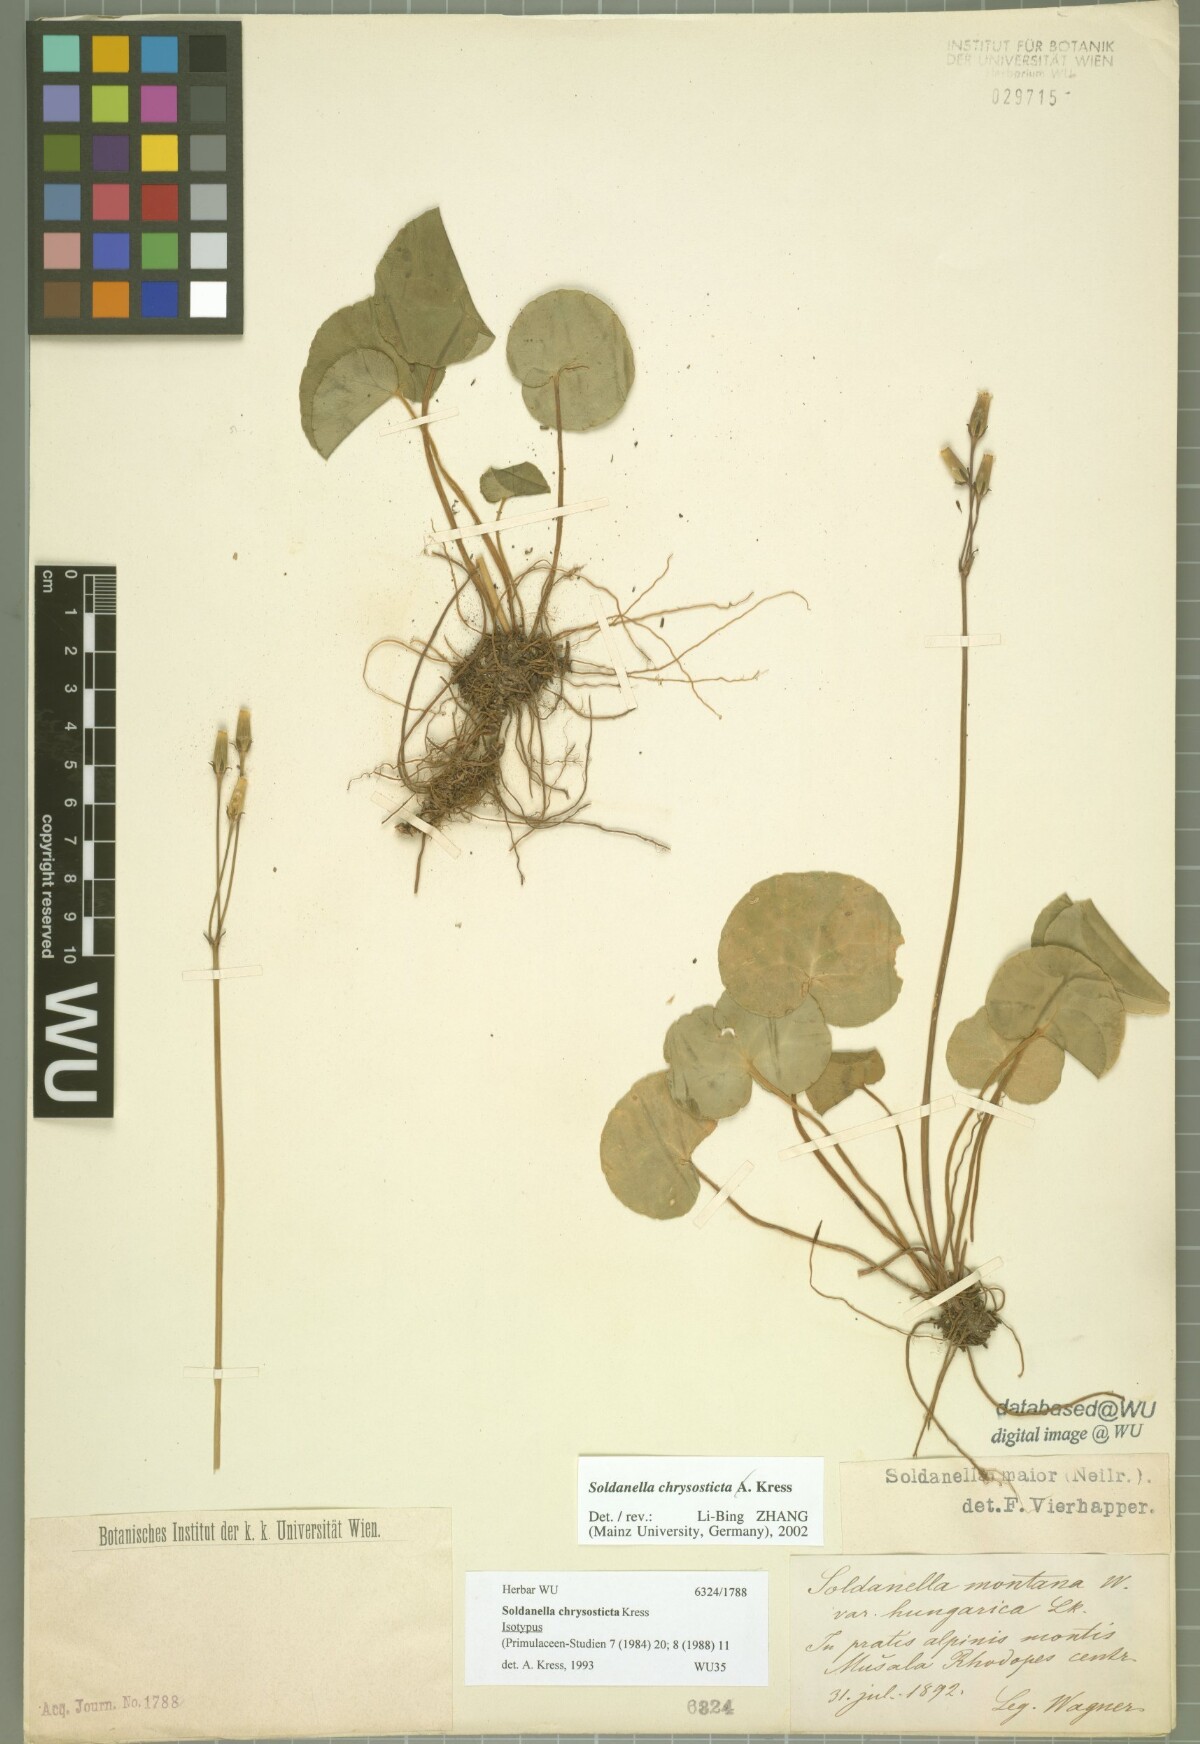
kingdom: Plantae
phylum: Tracheophyta
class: Magnoliopsida
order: Ericales
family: Primulaceae
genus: Soldanella
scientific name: Soldanella chrysosticta
